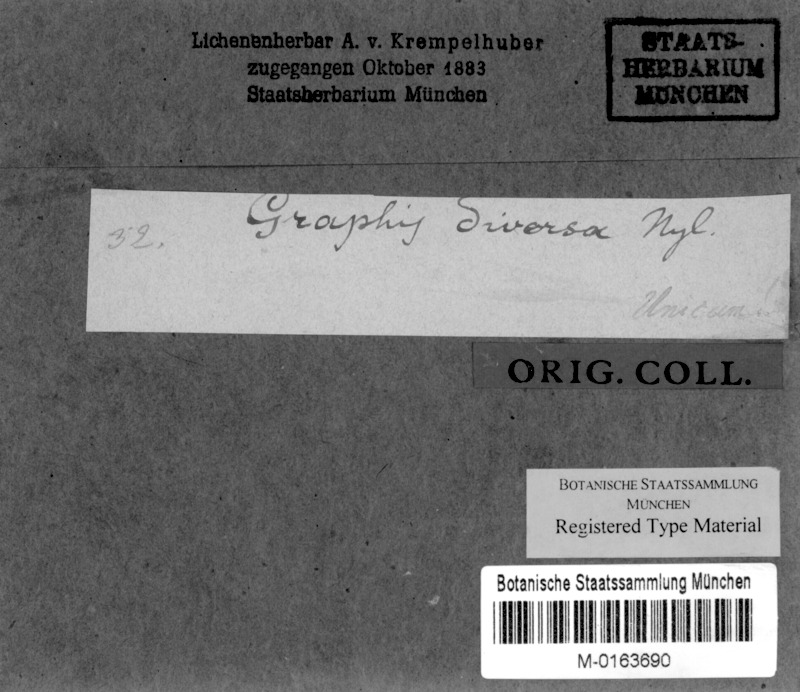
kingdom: Fungi
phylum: Ascomycota
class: Lecanoromycetes
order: Graphidales
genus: Graphina
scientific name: Graphina obtrita
